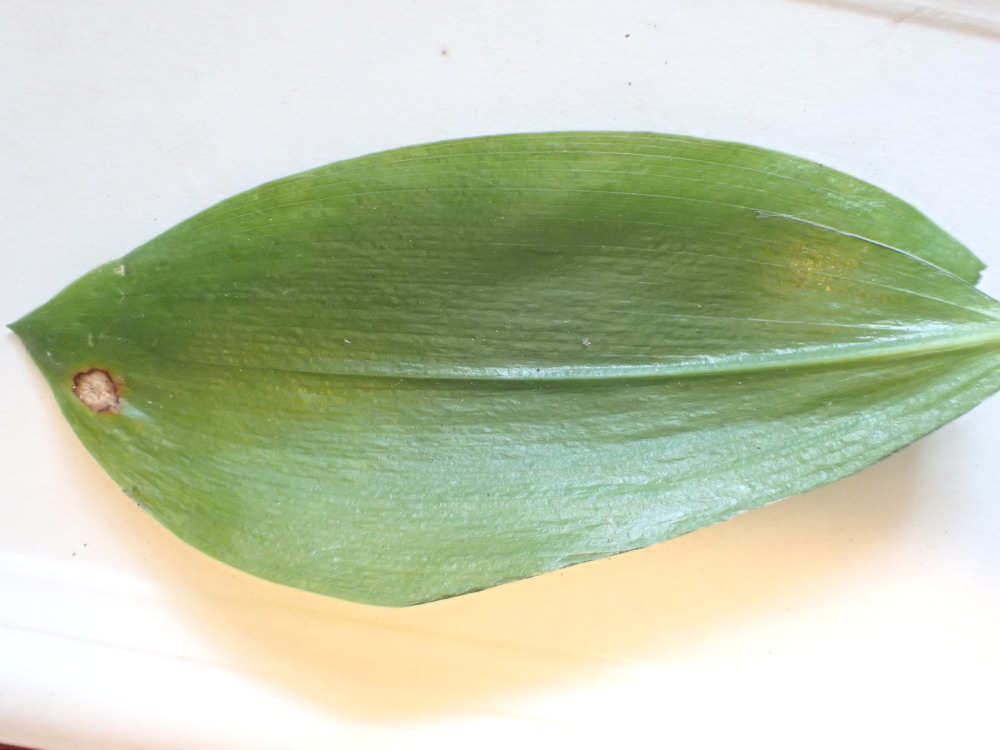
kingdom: Fungi
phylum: Basidiomycota
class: Pucciniomycetes
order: Pucciniales
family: Pucciniaceae
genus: Puccinia
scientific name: Puccinia sessilis
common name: Arum rust
